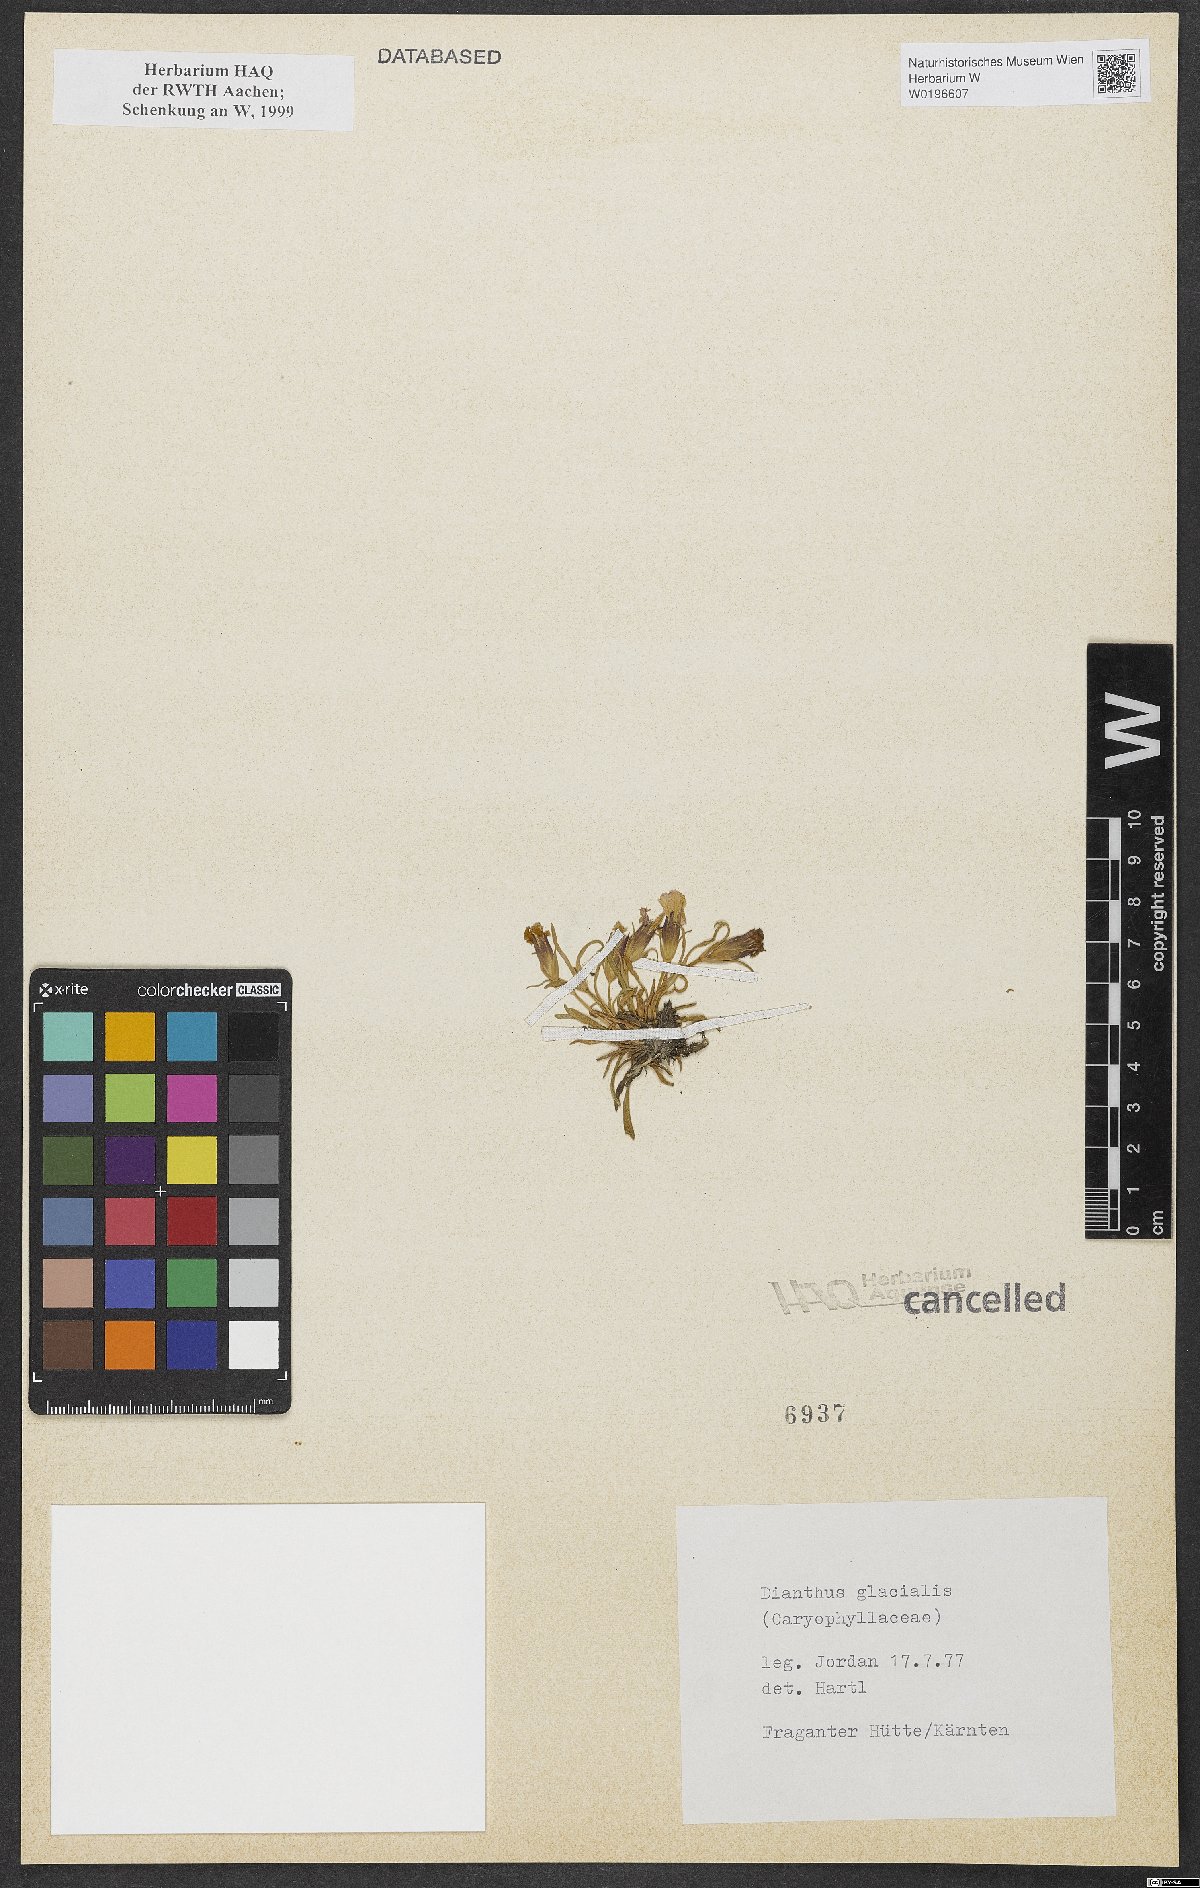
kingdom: Plantae
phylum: Tracheophyta
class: Magnoliopsida
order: Caryophyllales
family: Caryophyllaceae
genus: Dianthus
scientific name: Dianthus glacialis
